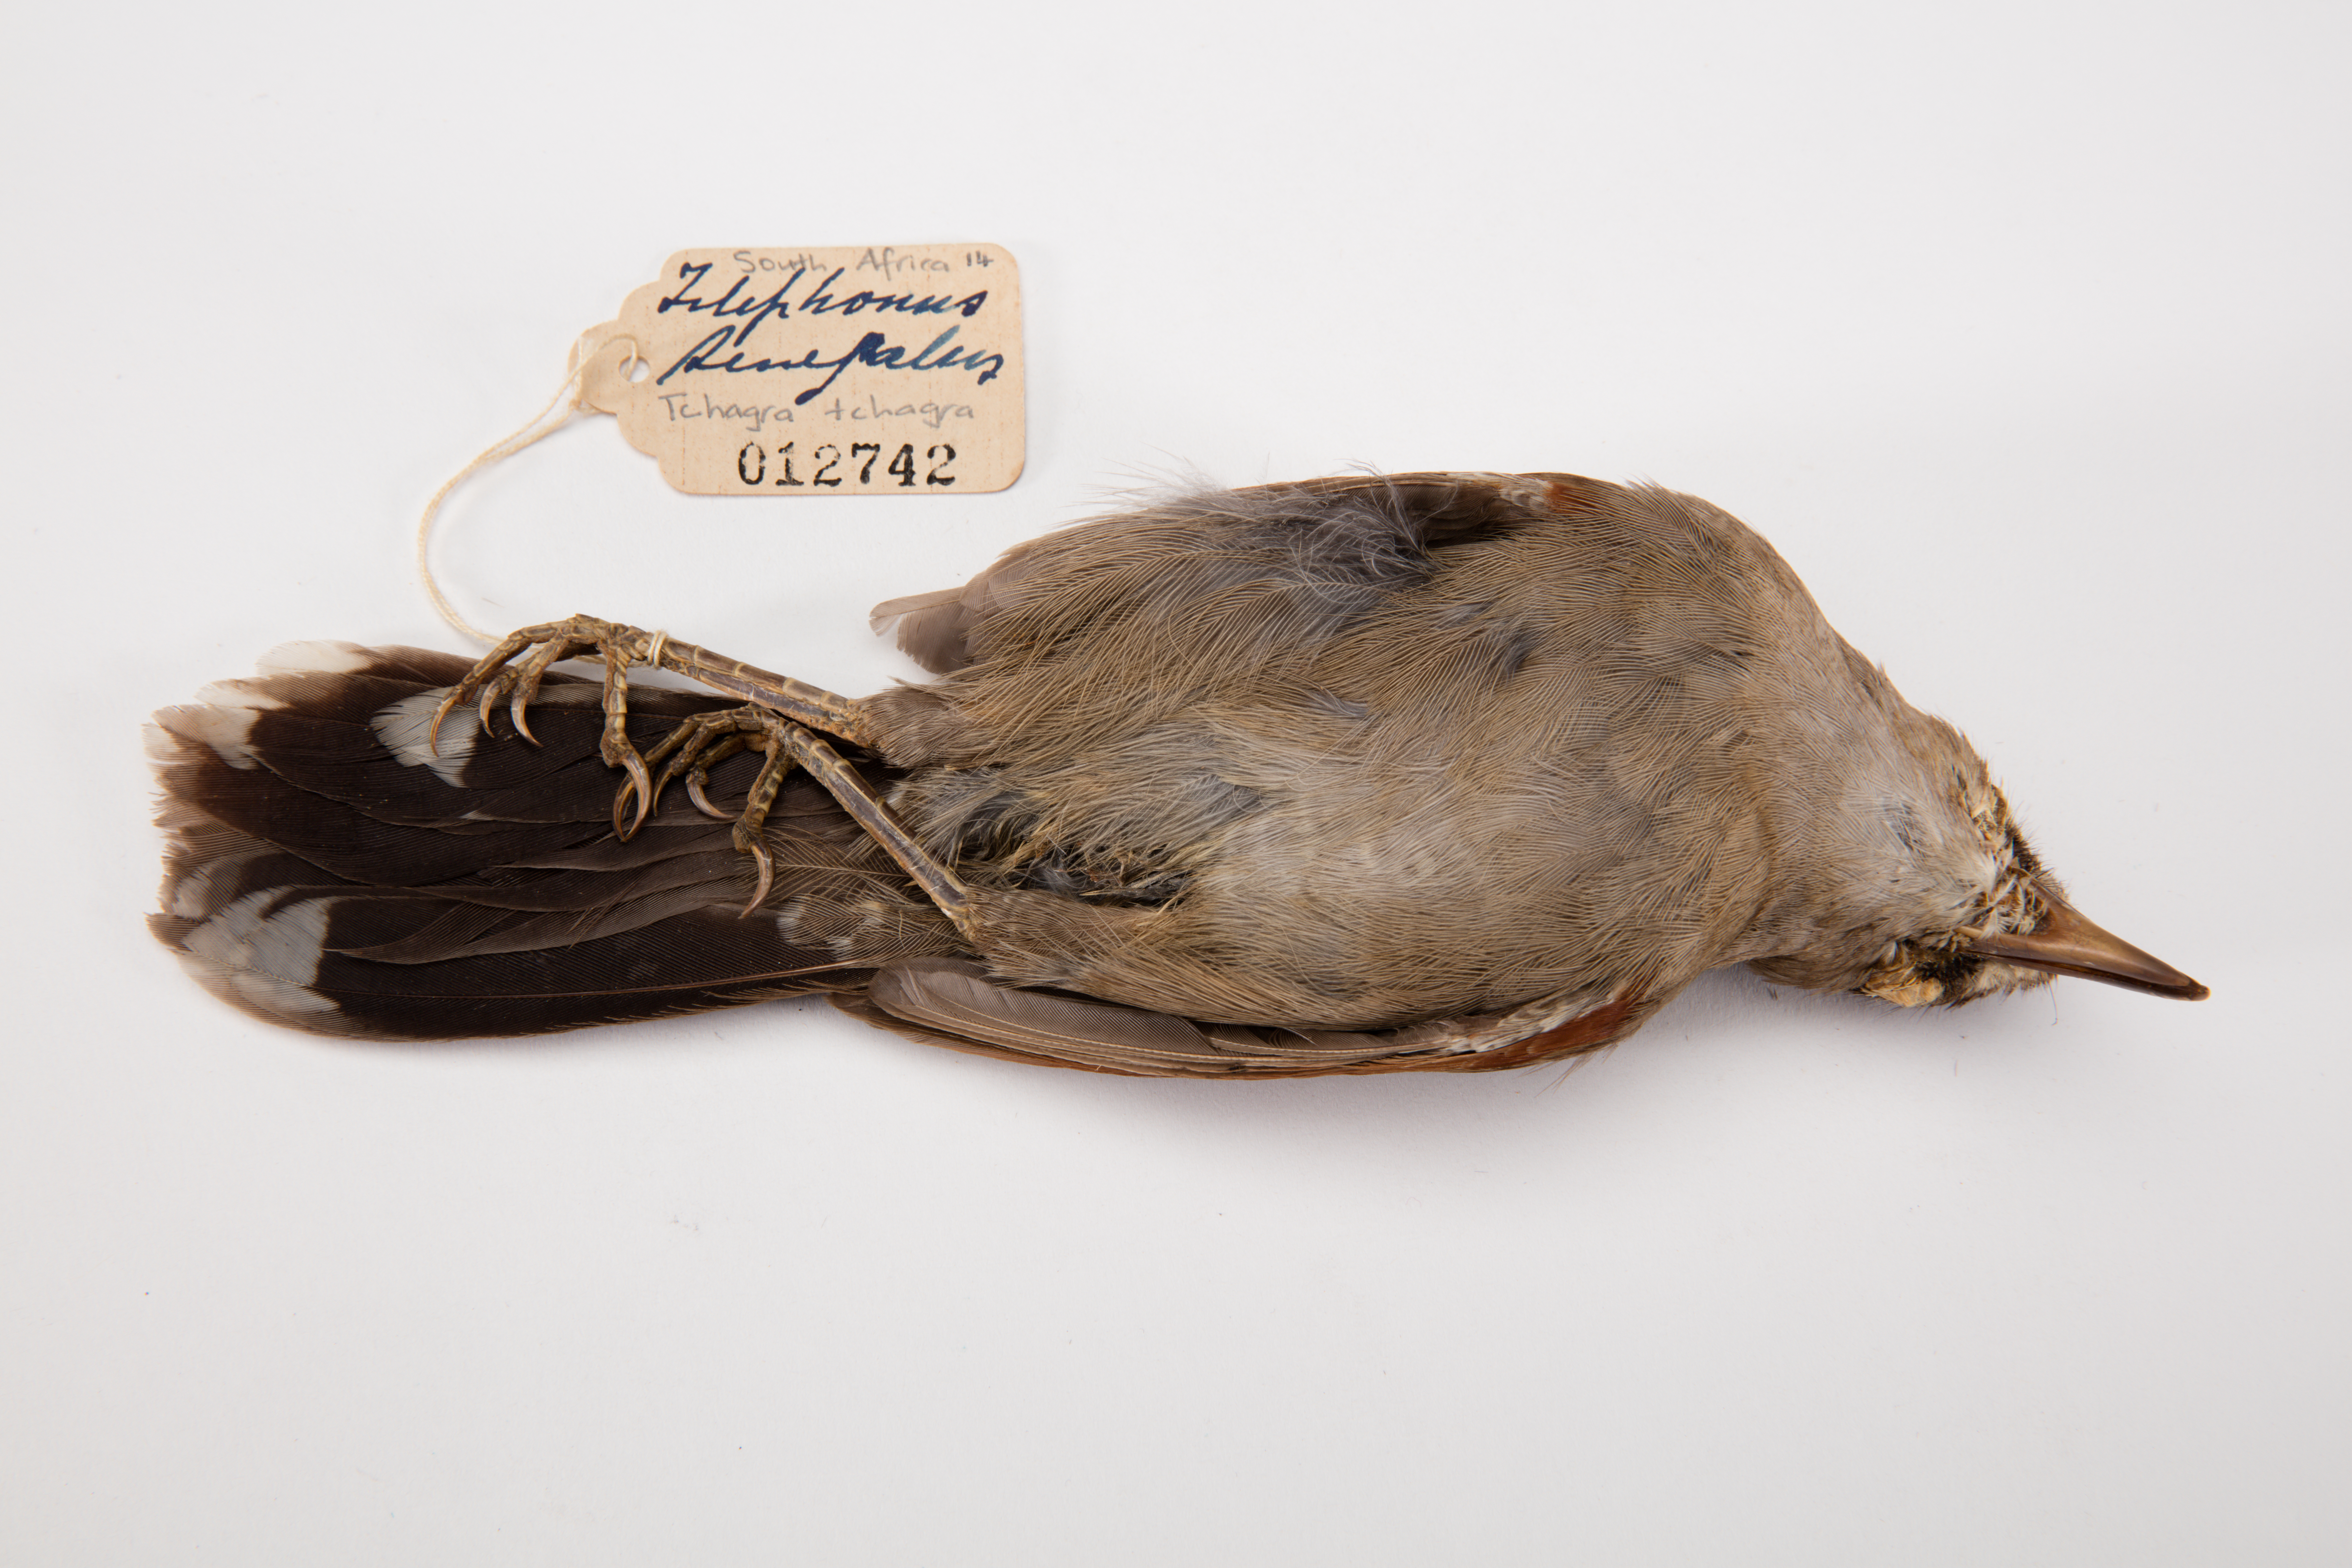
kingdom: Animalia
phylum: Chordata
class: Aves
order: Passeriformes
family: Malaconotidae
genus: Tchagra
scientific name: Tchagra tchagra
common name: Southern tchagra
